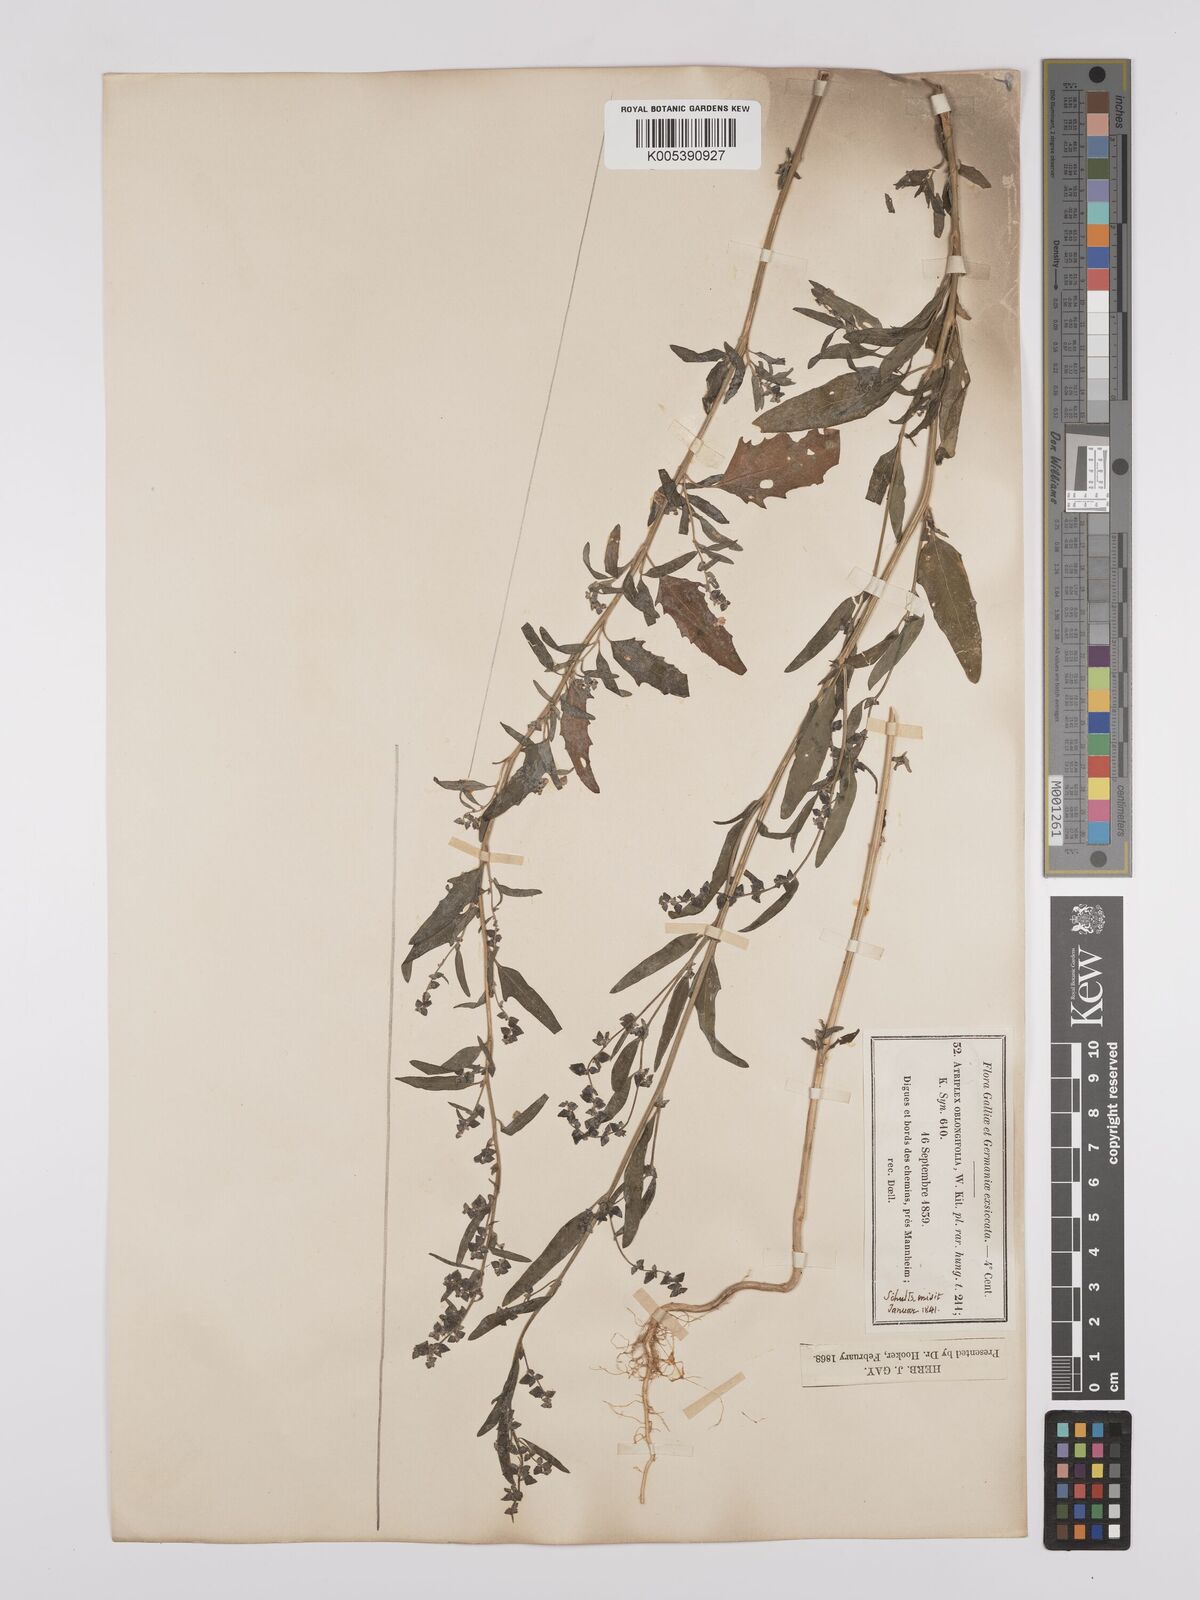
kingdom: Plantae
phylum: Tracheophyta
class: Magnoliopsida
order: Caryophyllales
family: Amaranthaceae
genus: Atriplex
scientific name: Atriplex
